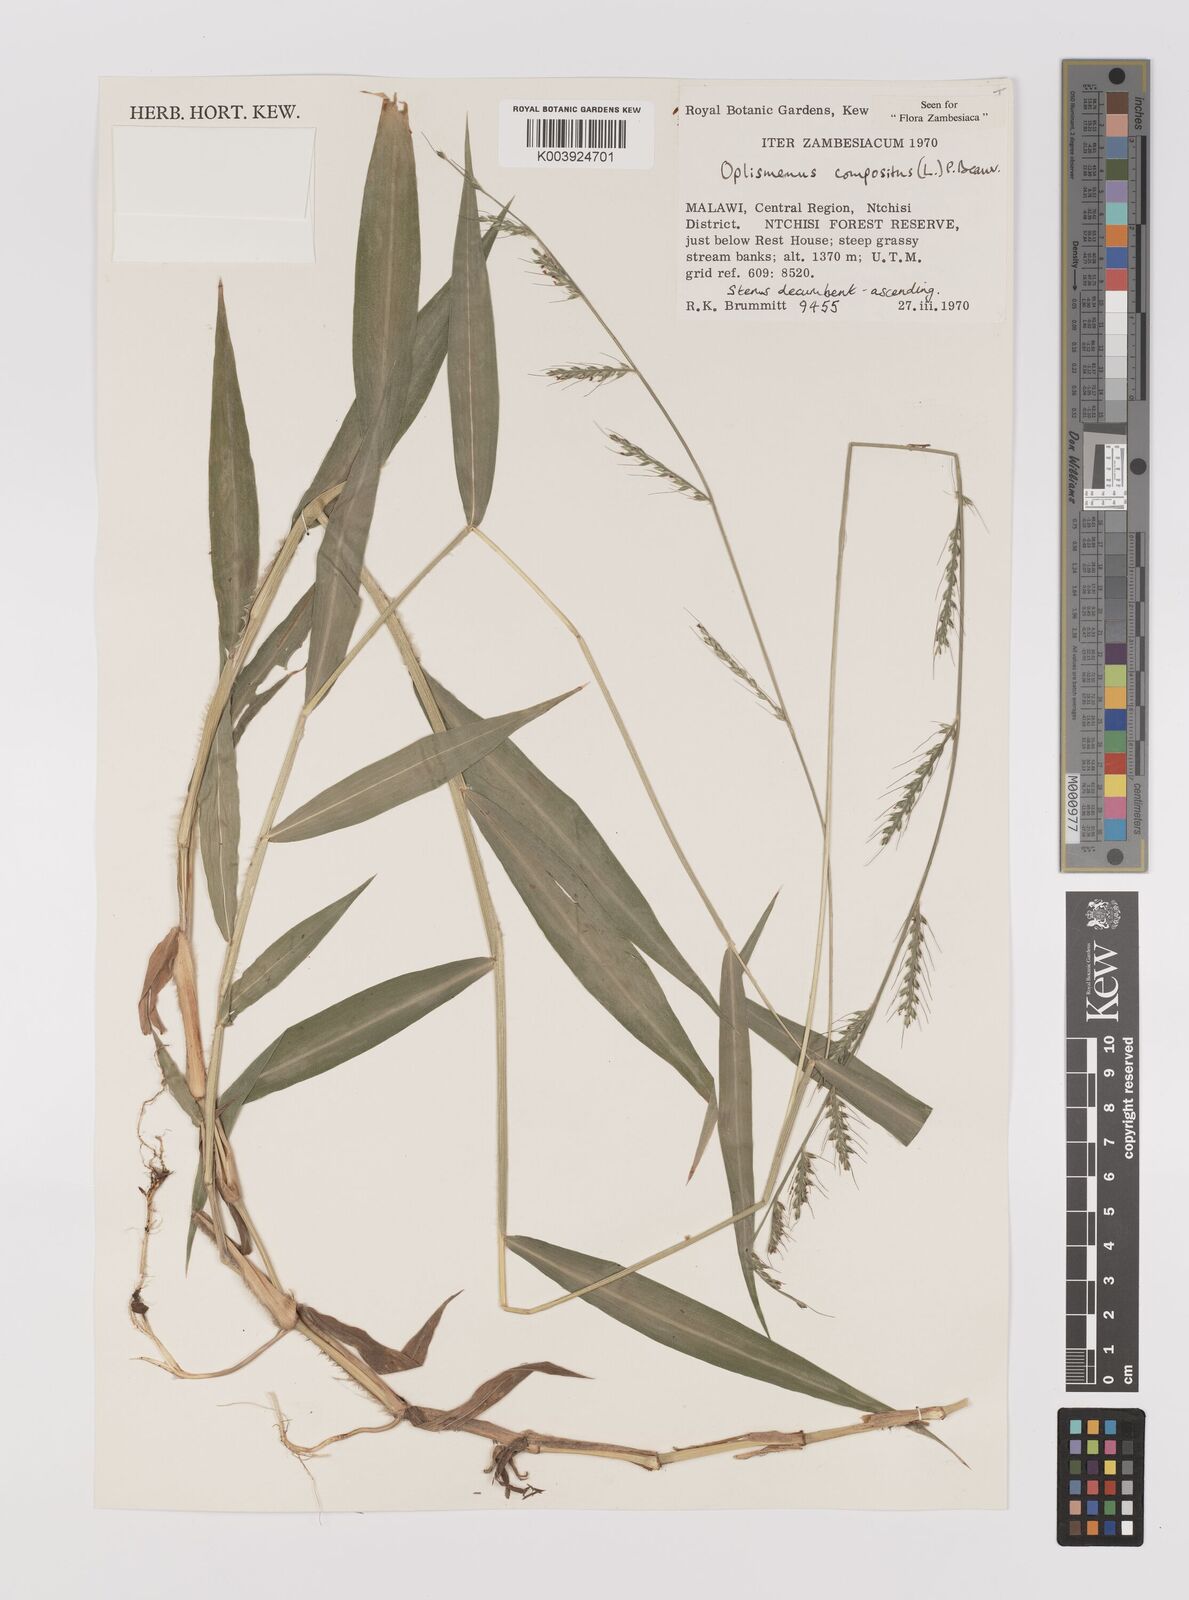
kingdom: Plantae
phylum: Tracheophyta
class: Liliopsida
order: Poales
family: Poaceae
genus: Oplismenus
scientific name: Oplismenus compositus
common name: Running mountain grass
